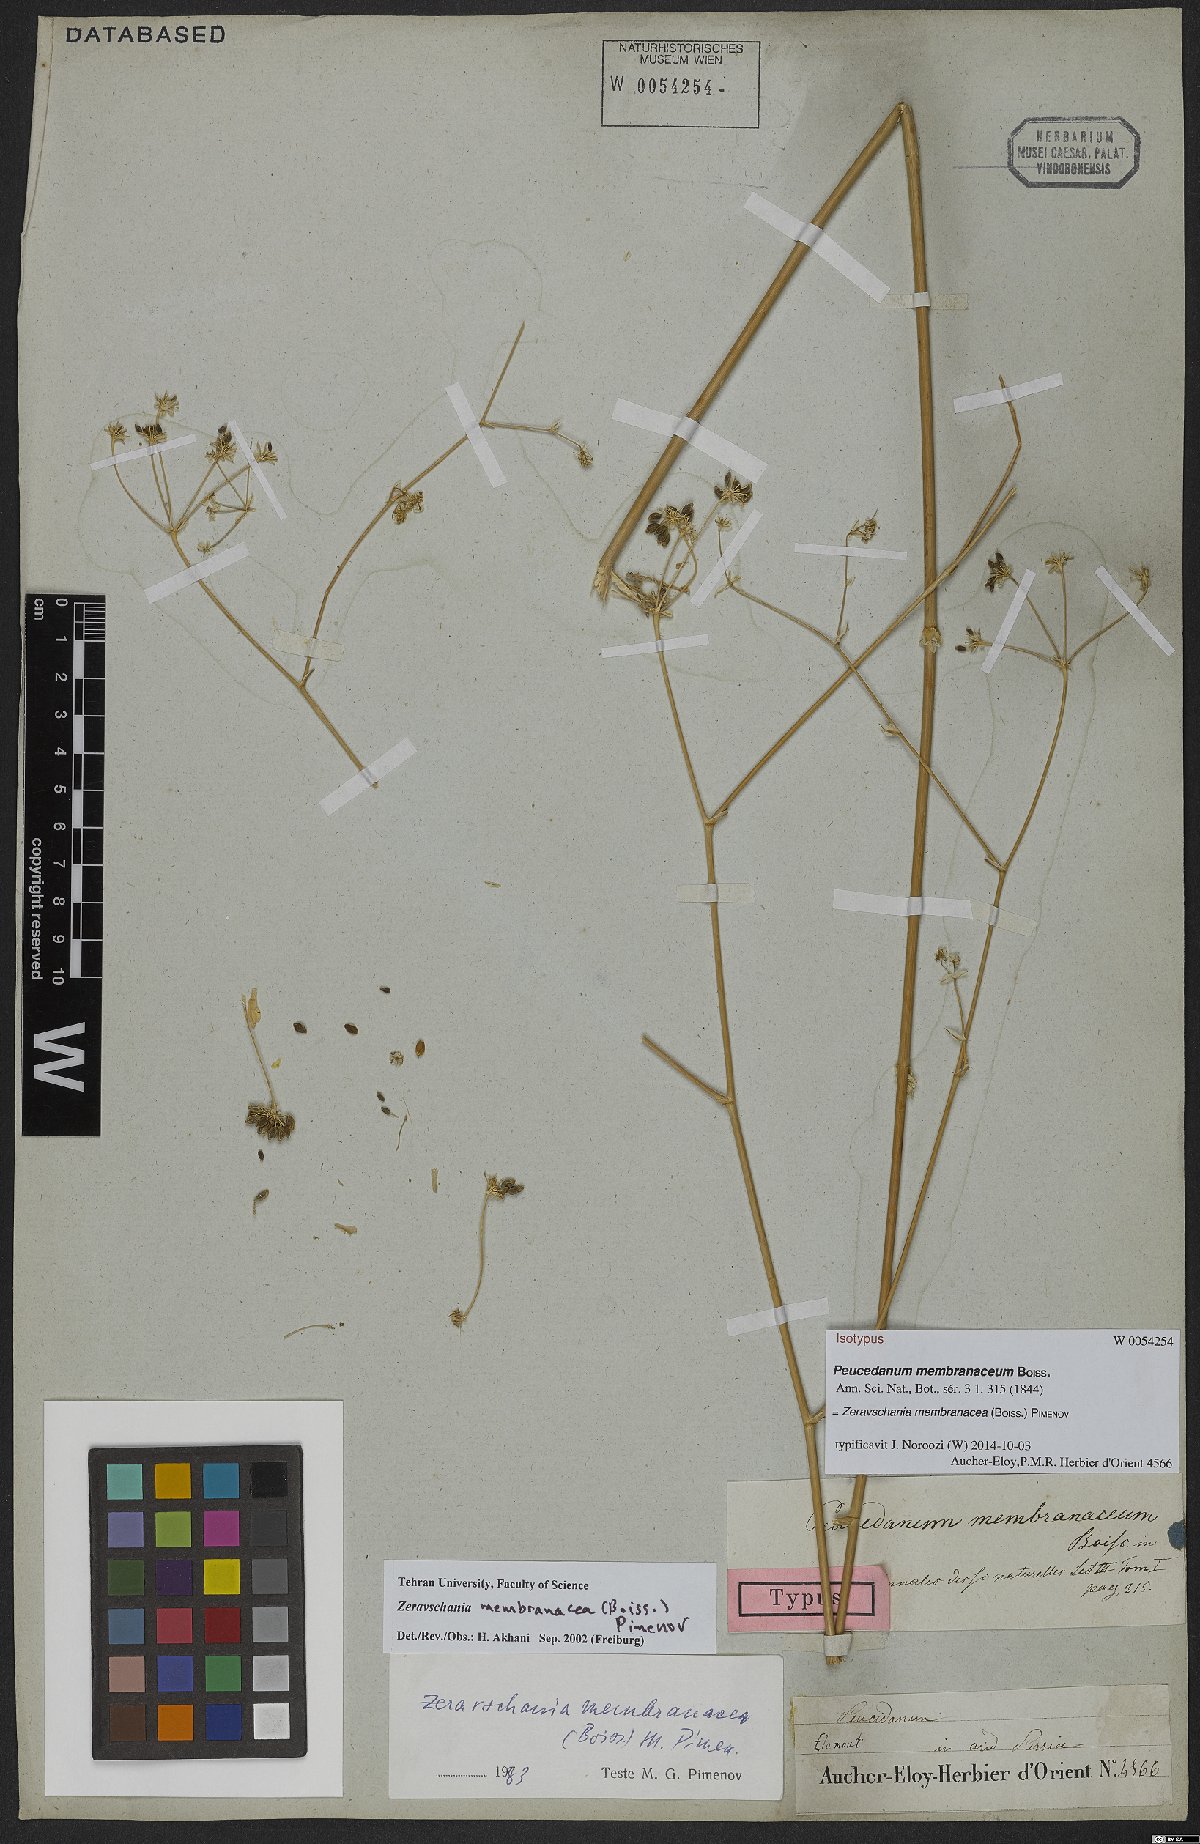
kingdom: Plantae
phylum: Tracheophyta
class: Magnoliopsida
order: Apiales
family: Apiaceae
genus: Zeravschania
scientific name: Zeravschania membranacea
